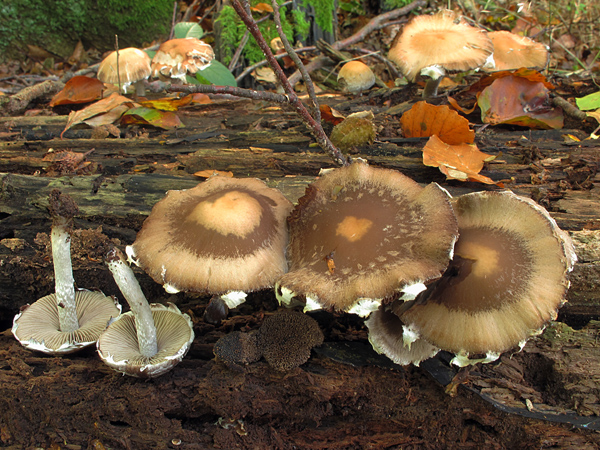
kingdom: Fungi
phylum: Basidiomycota
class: Agaricomycetes
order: Agaricales
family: Psathyrellaceae
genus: Psathyrella
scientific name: Psathyrella spintrigeroides
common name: tandet mørkhat
